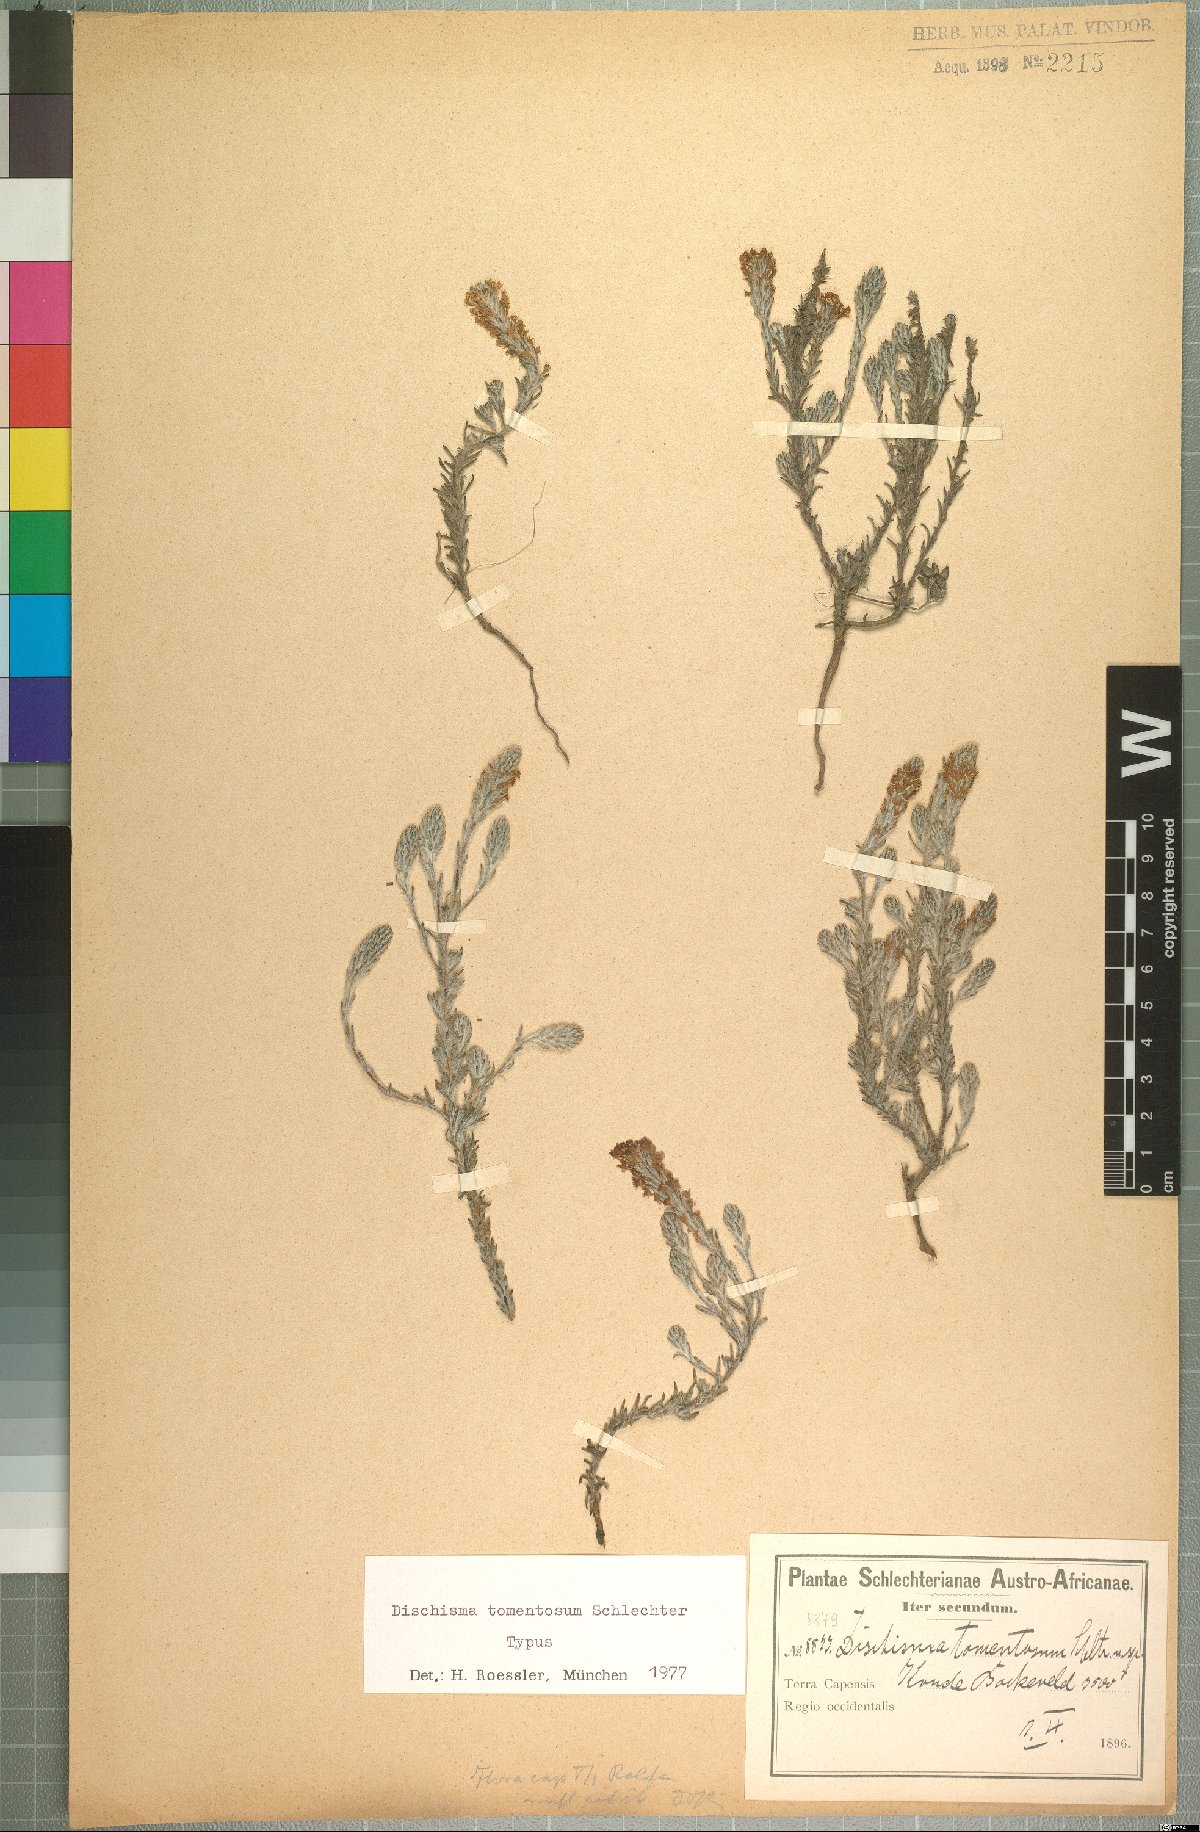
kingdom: Plantae
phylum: Tracheophyta
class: Magnoliopsida
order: Lamiales
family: Scrophulariaceae
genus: Dischisma
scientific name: Dischisma tomentosum
